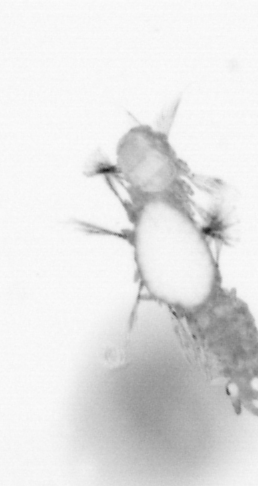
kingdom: Animalia
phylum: Annelida
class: Polychaeta
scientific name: Polychaeta
